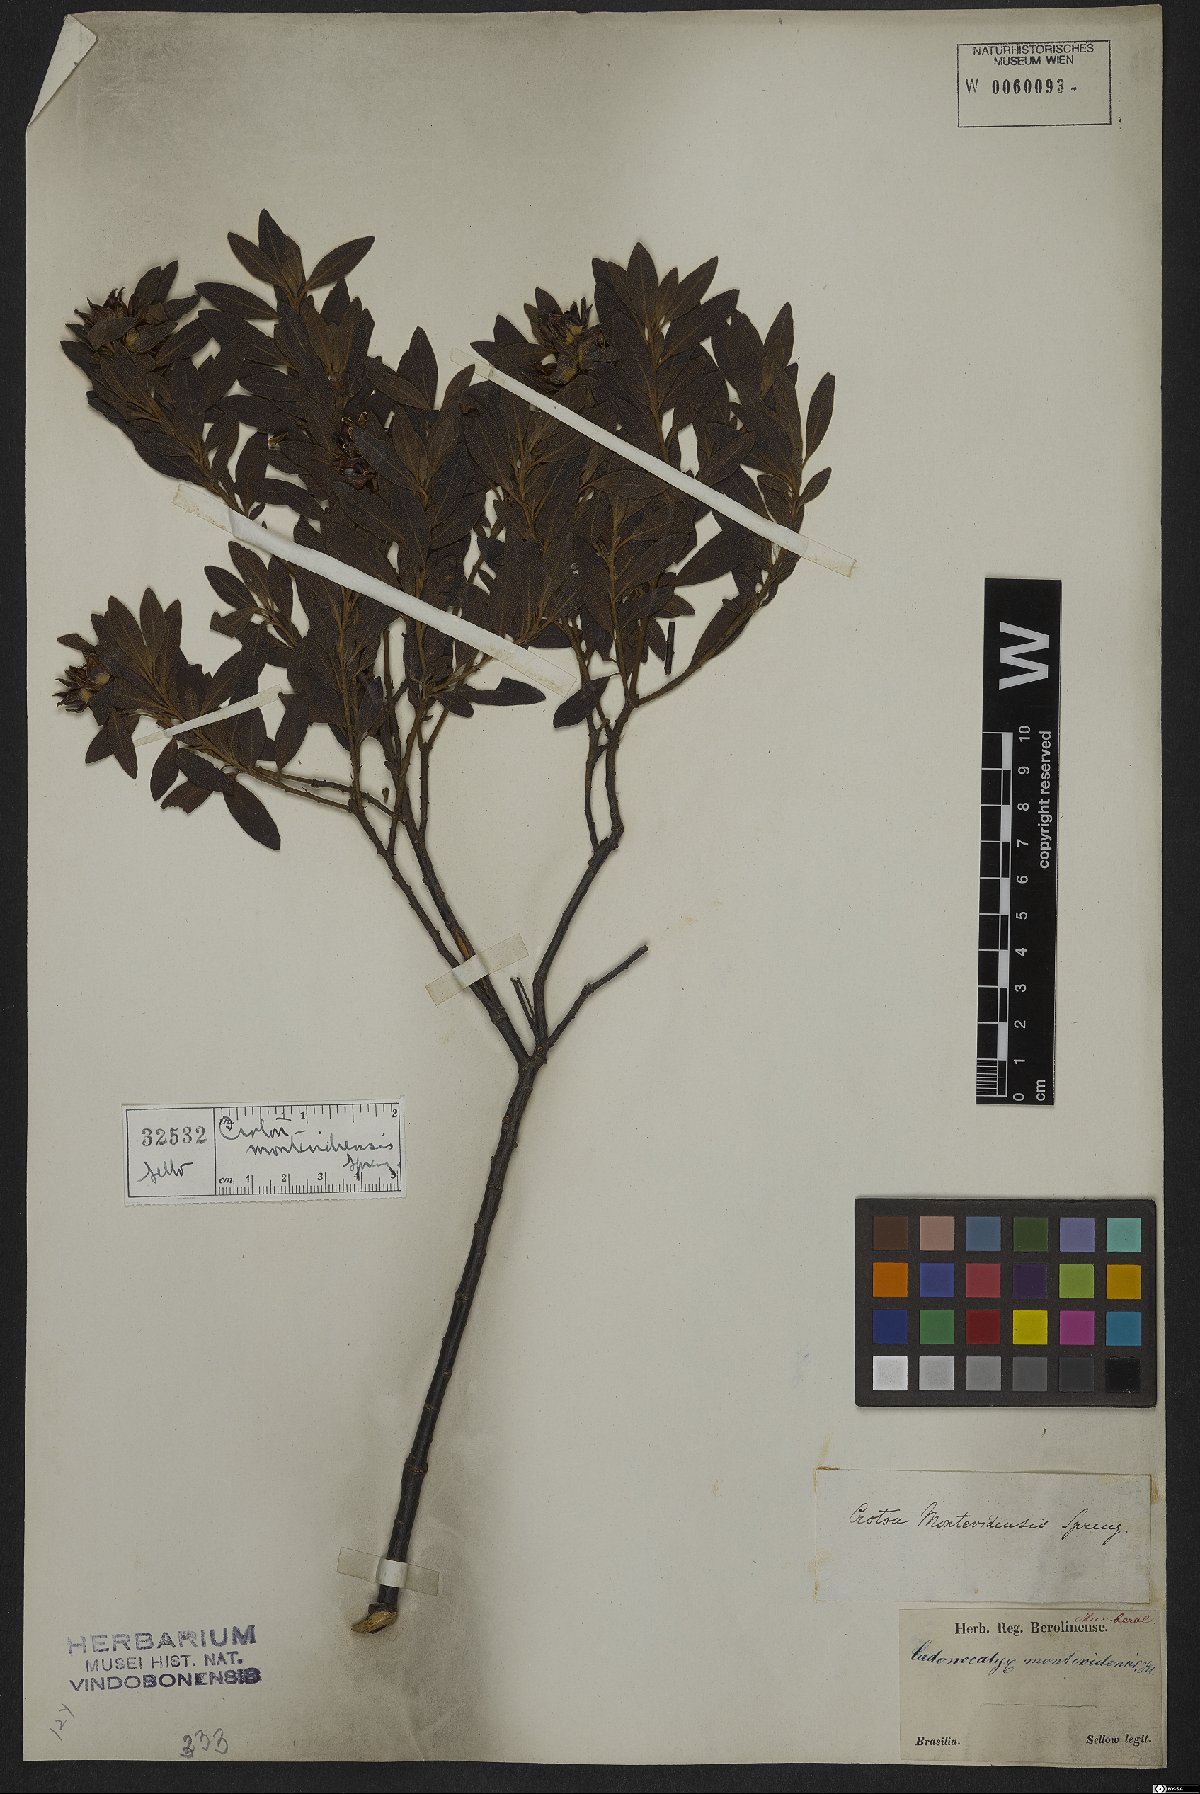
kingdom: Plantae
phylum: Tracheophyta
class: Magnoliopsida
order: Malpighiales
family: Euphorbiaceae
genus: Croton
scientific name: Croton montevidensis
